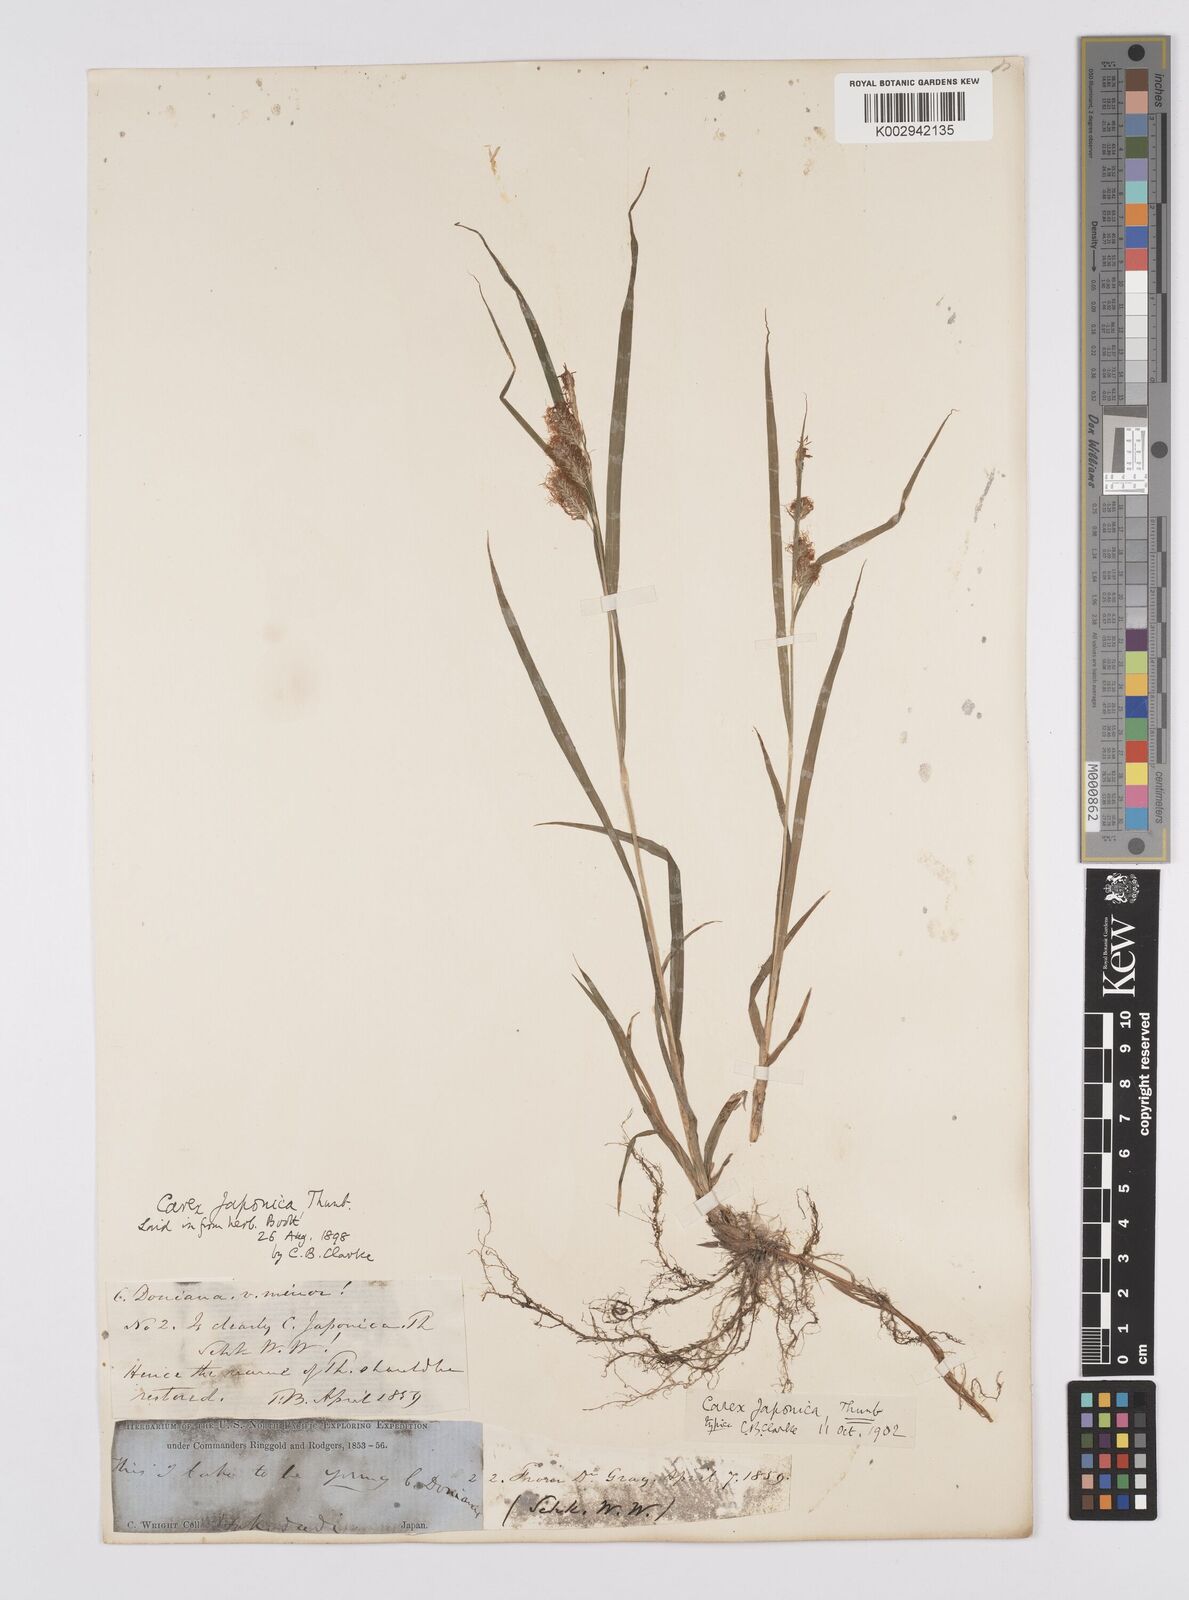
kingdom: Plantae
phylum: Tracheophyta
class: Liliopsida
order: Poales
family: Cyperaceae
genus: Carex
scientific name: Carex japonica
